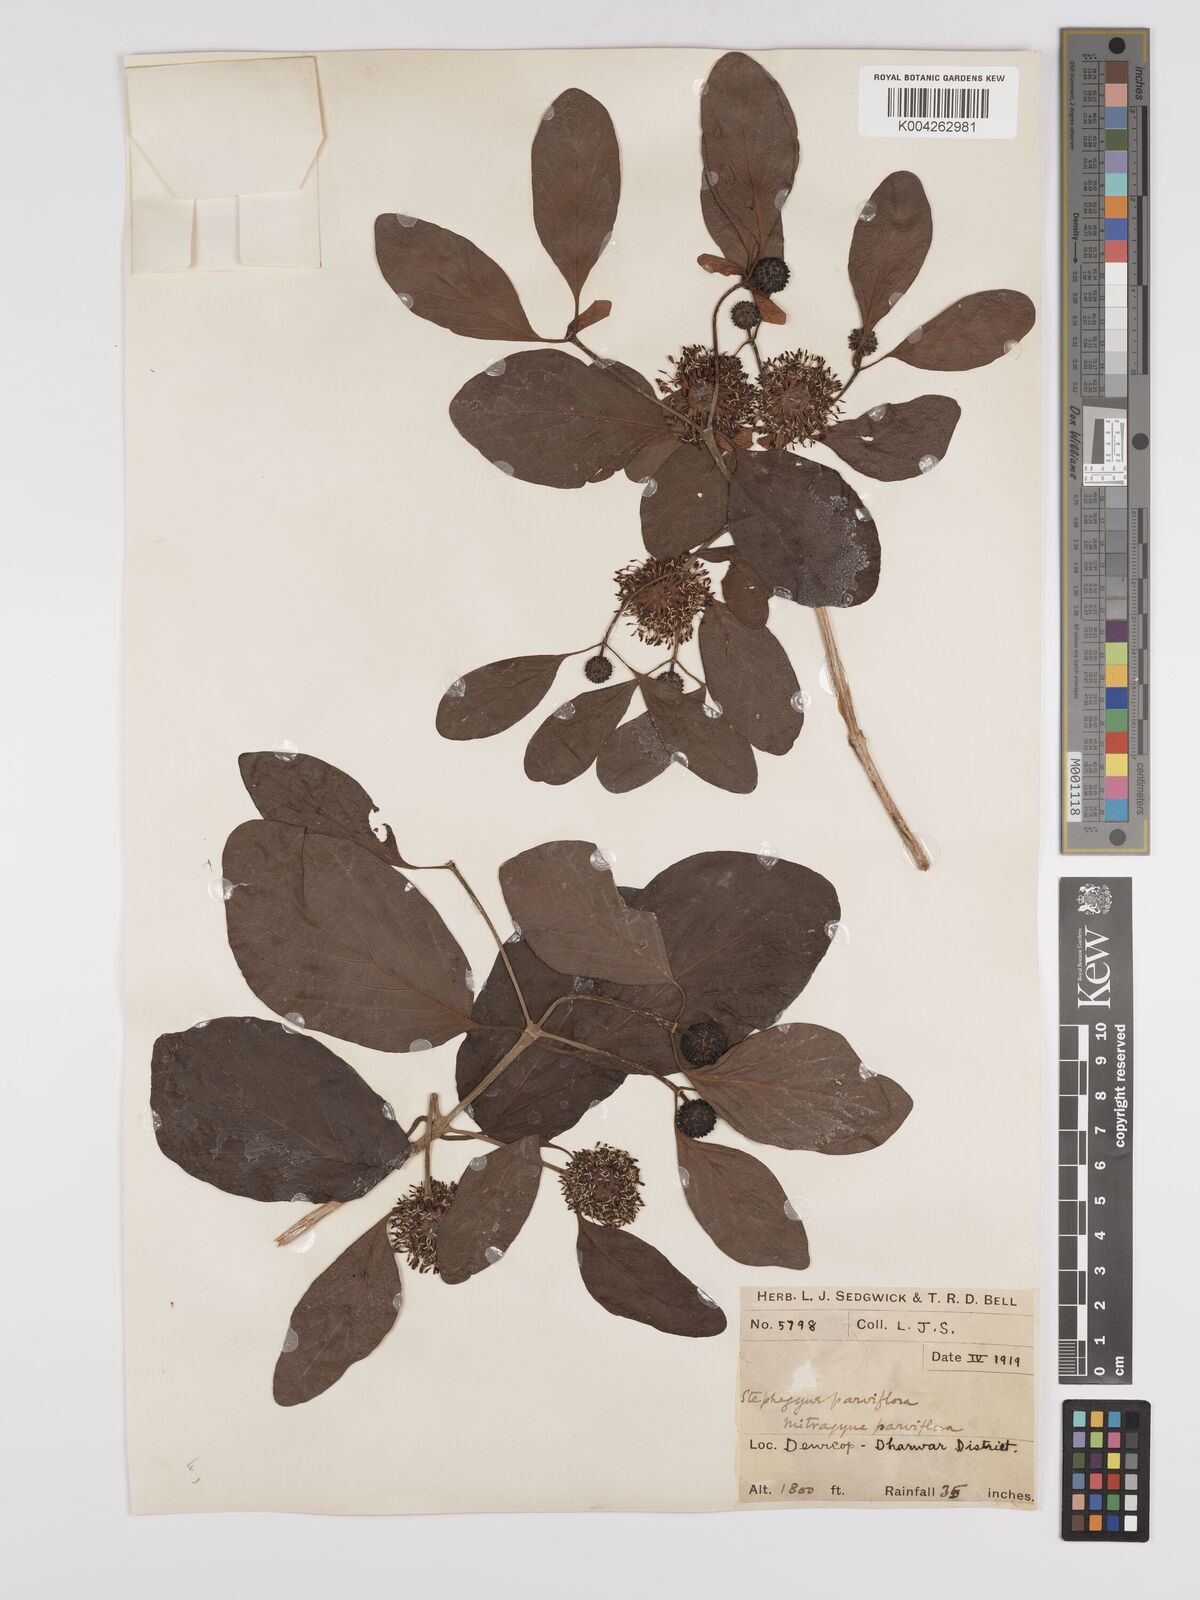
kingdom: Plantae
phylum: Tracheophyta
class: Magnoliopsida
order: Gentianales
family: Rubiaceae
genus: Mitragyna
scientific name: Mitragyna parvifolia
